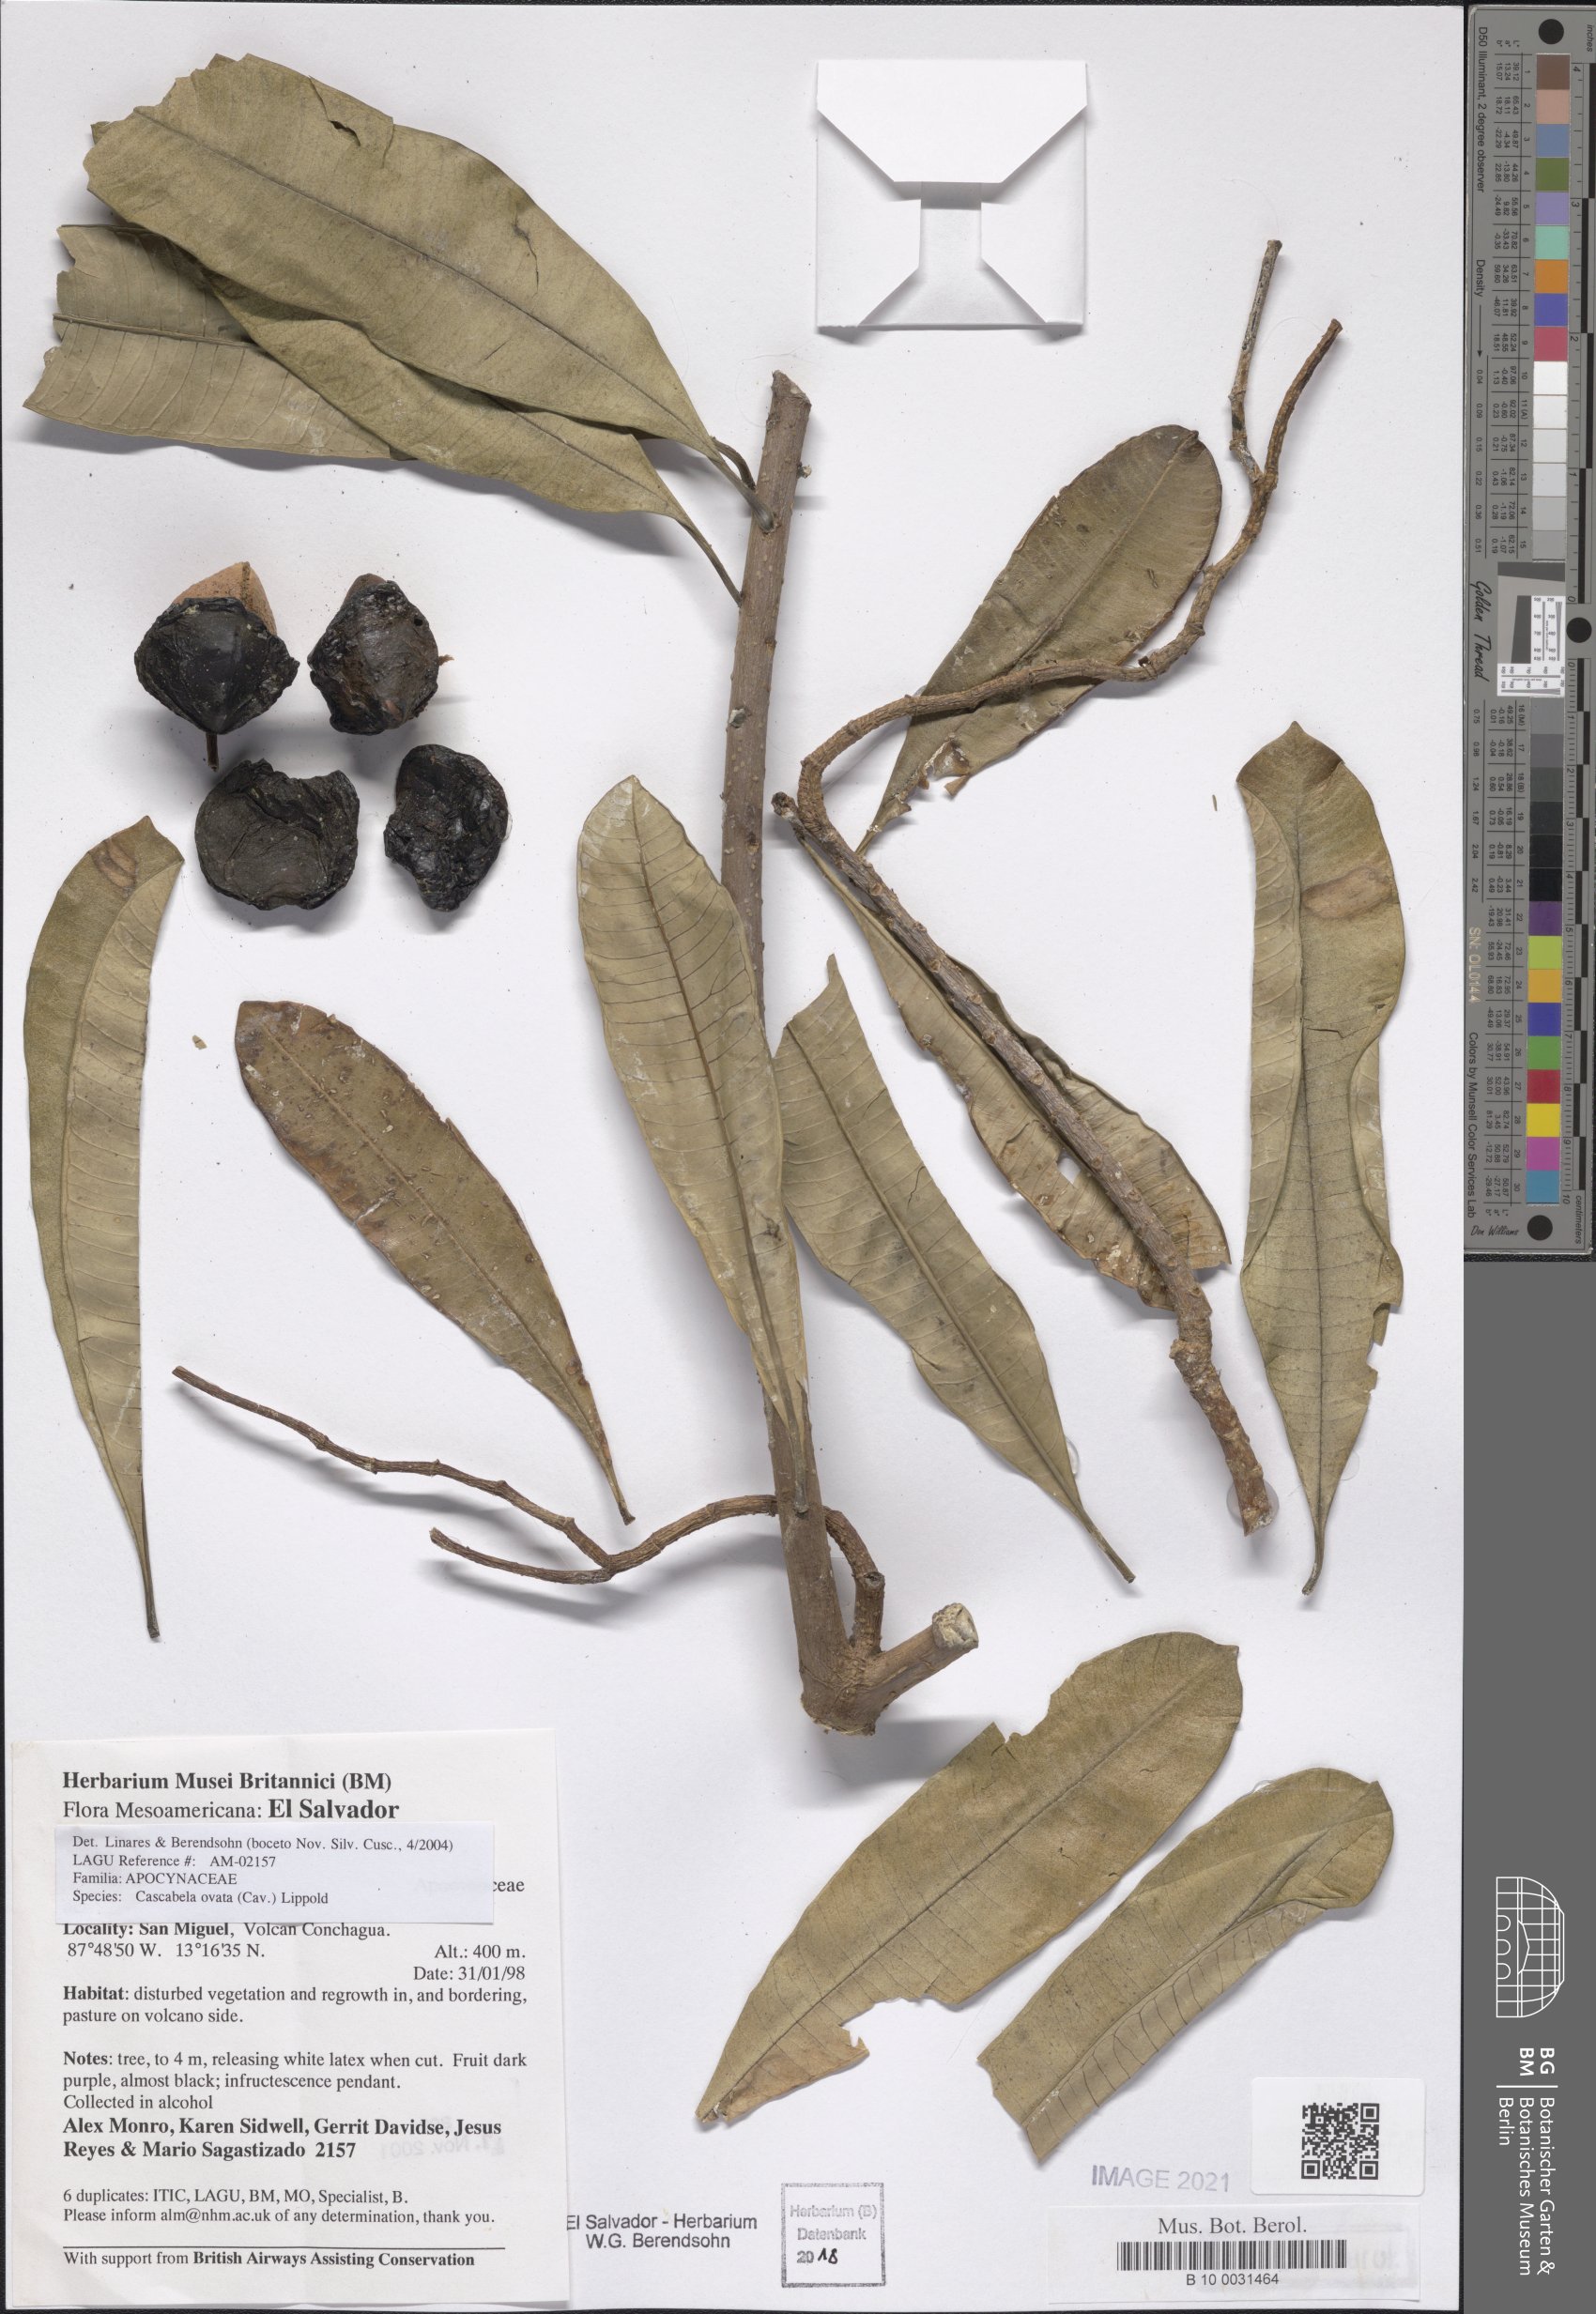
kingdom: Plantae
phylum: Tracheophyta
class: Magnoliopsida
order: Gentianales
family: Apocynaceae
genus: Cascabela
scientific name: Cascabela ovata
